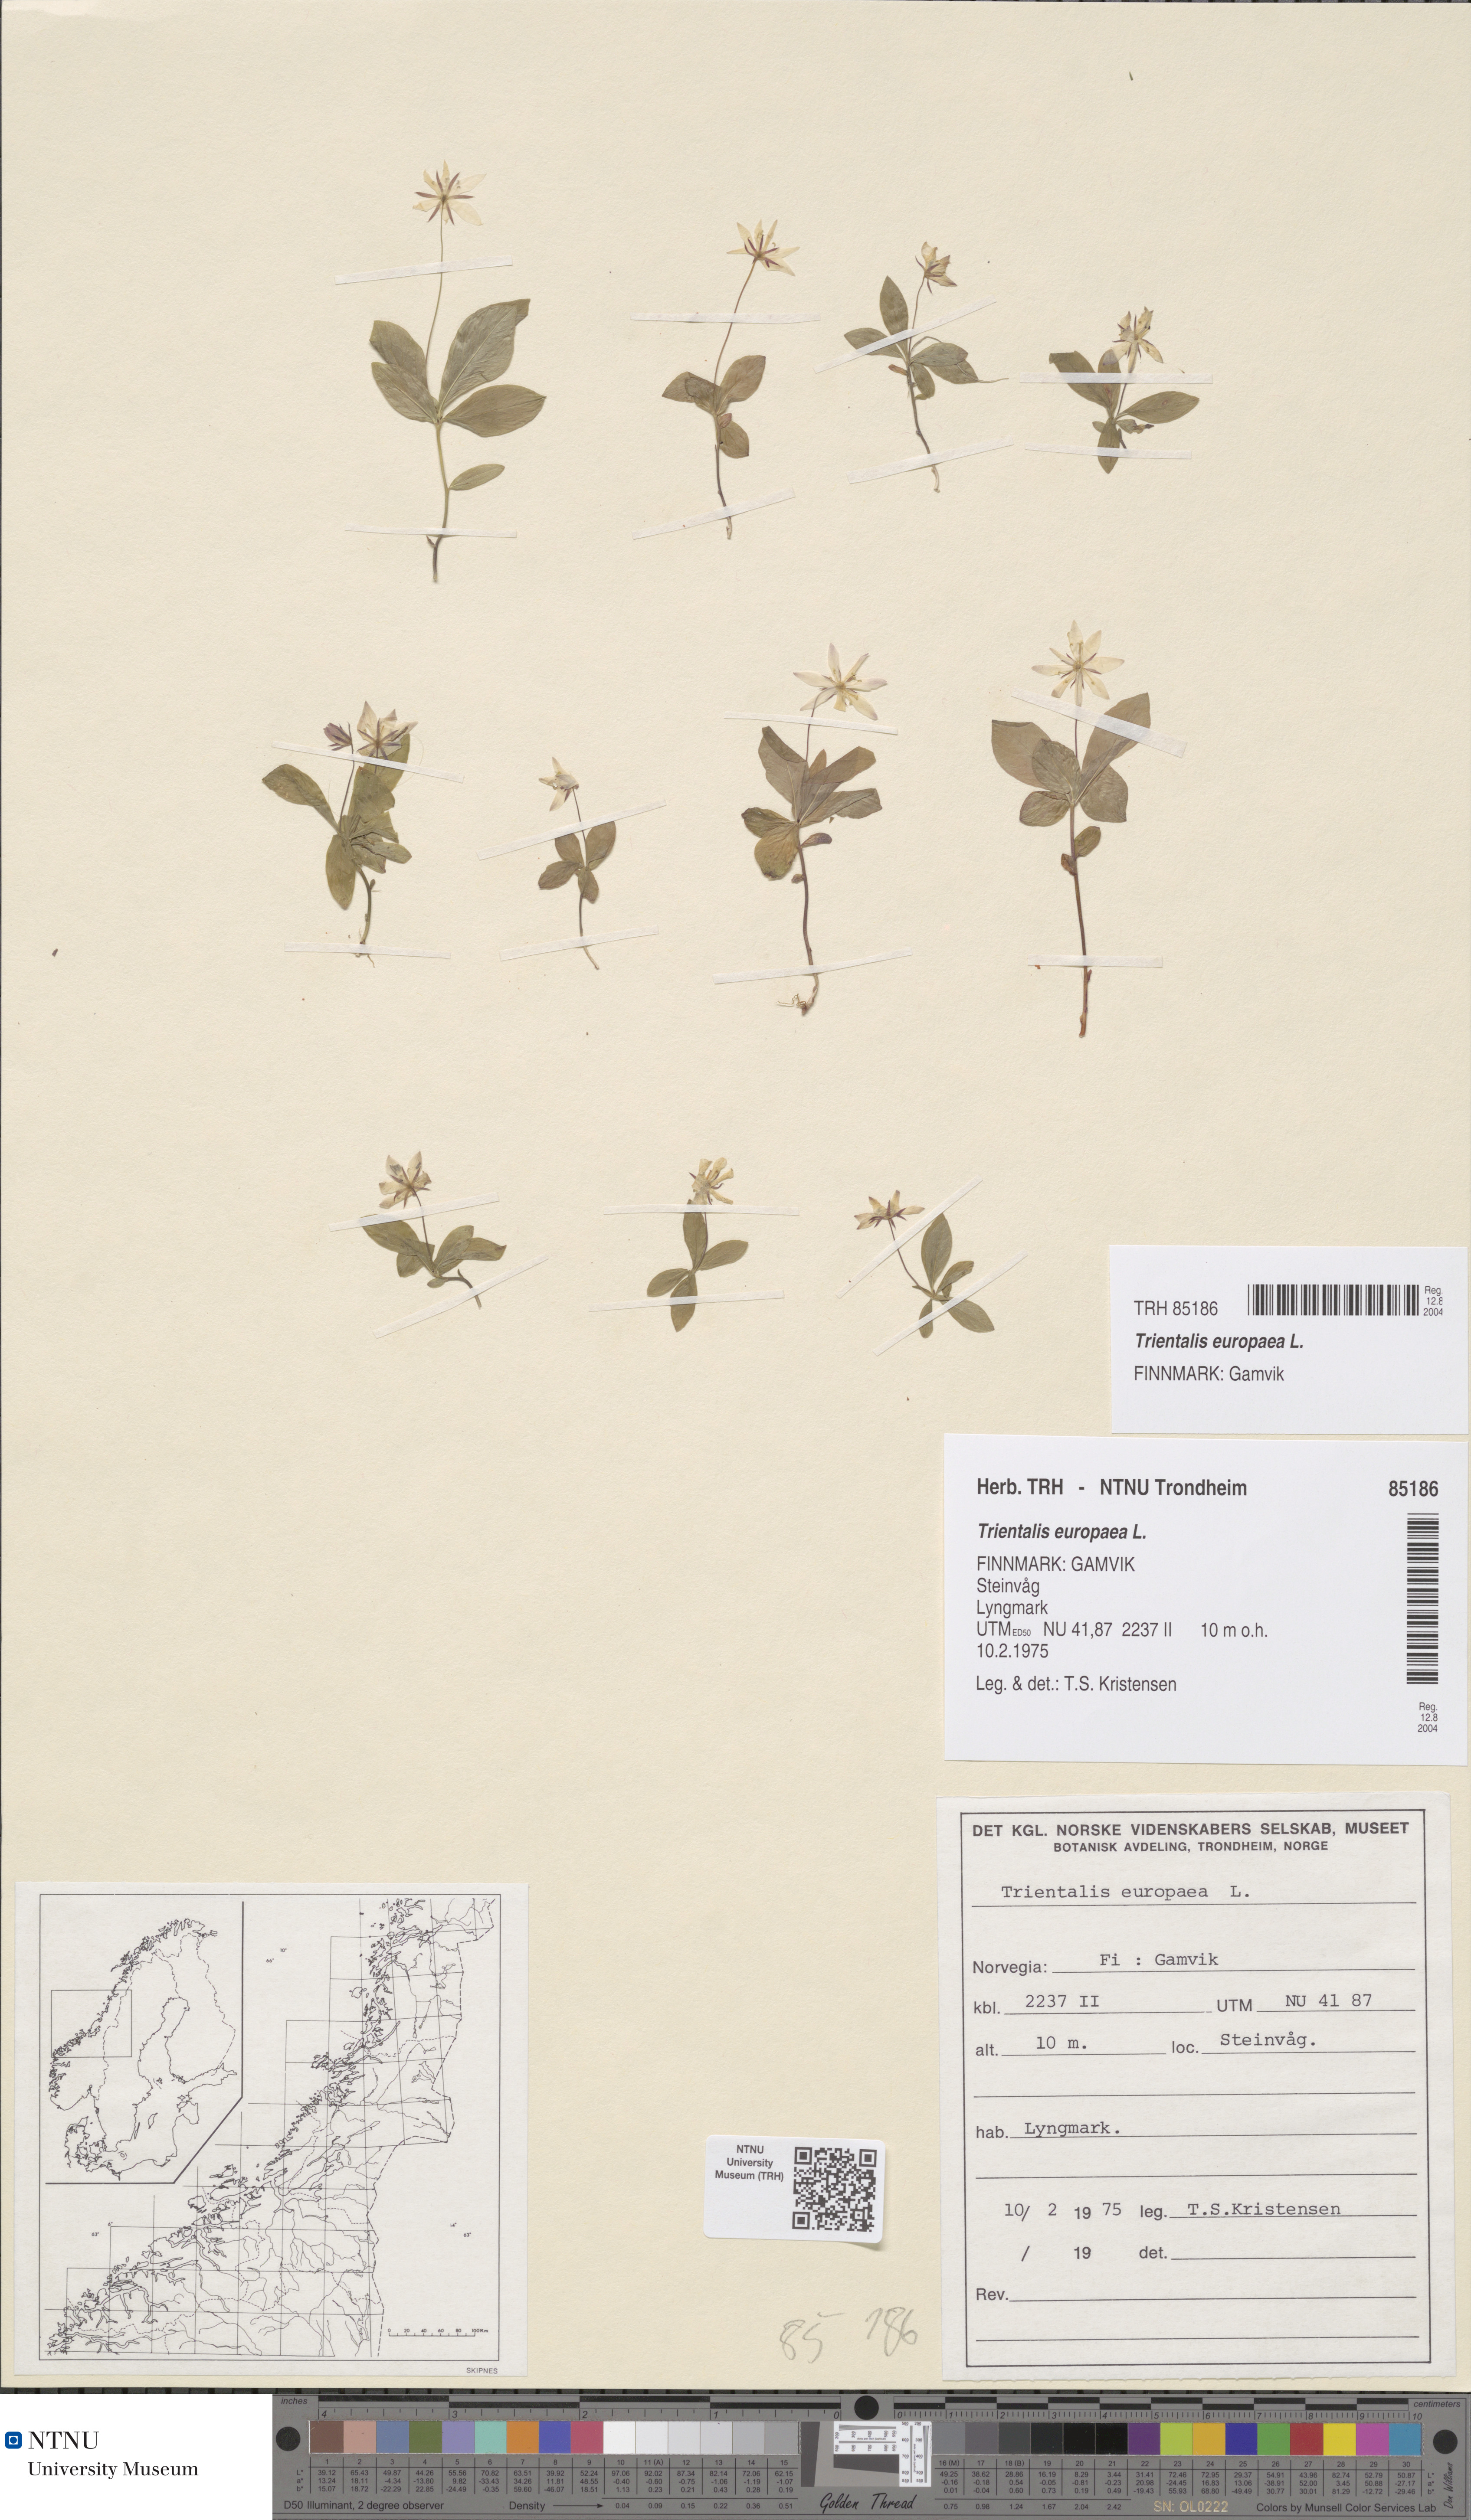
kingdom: Plantae
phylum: Tracheophyta
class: Magnoliopsida
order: Ericales
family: Primulaceae
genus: Lysimachia
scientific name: Lysimachia europaea
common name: Arctic starflower
